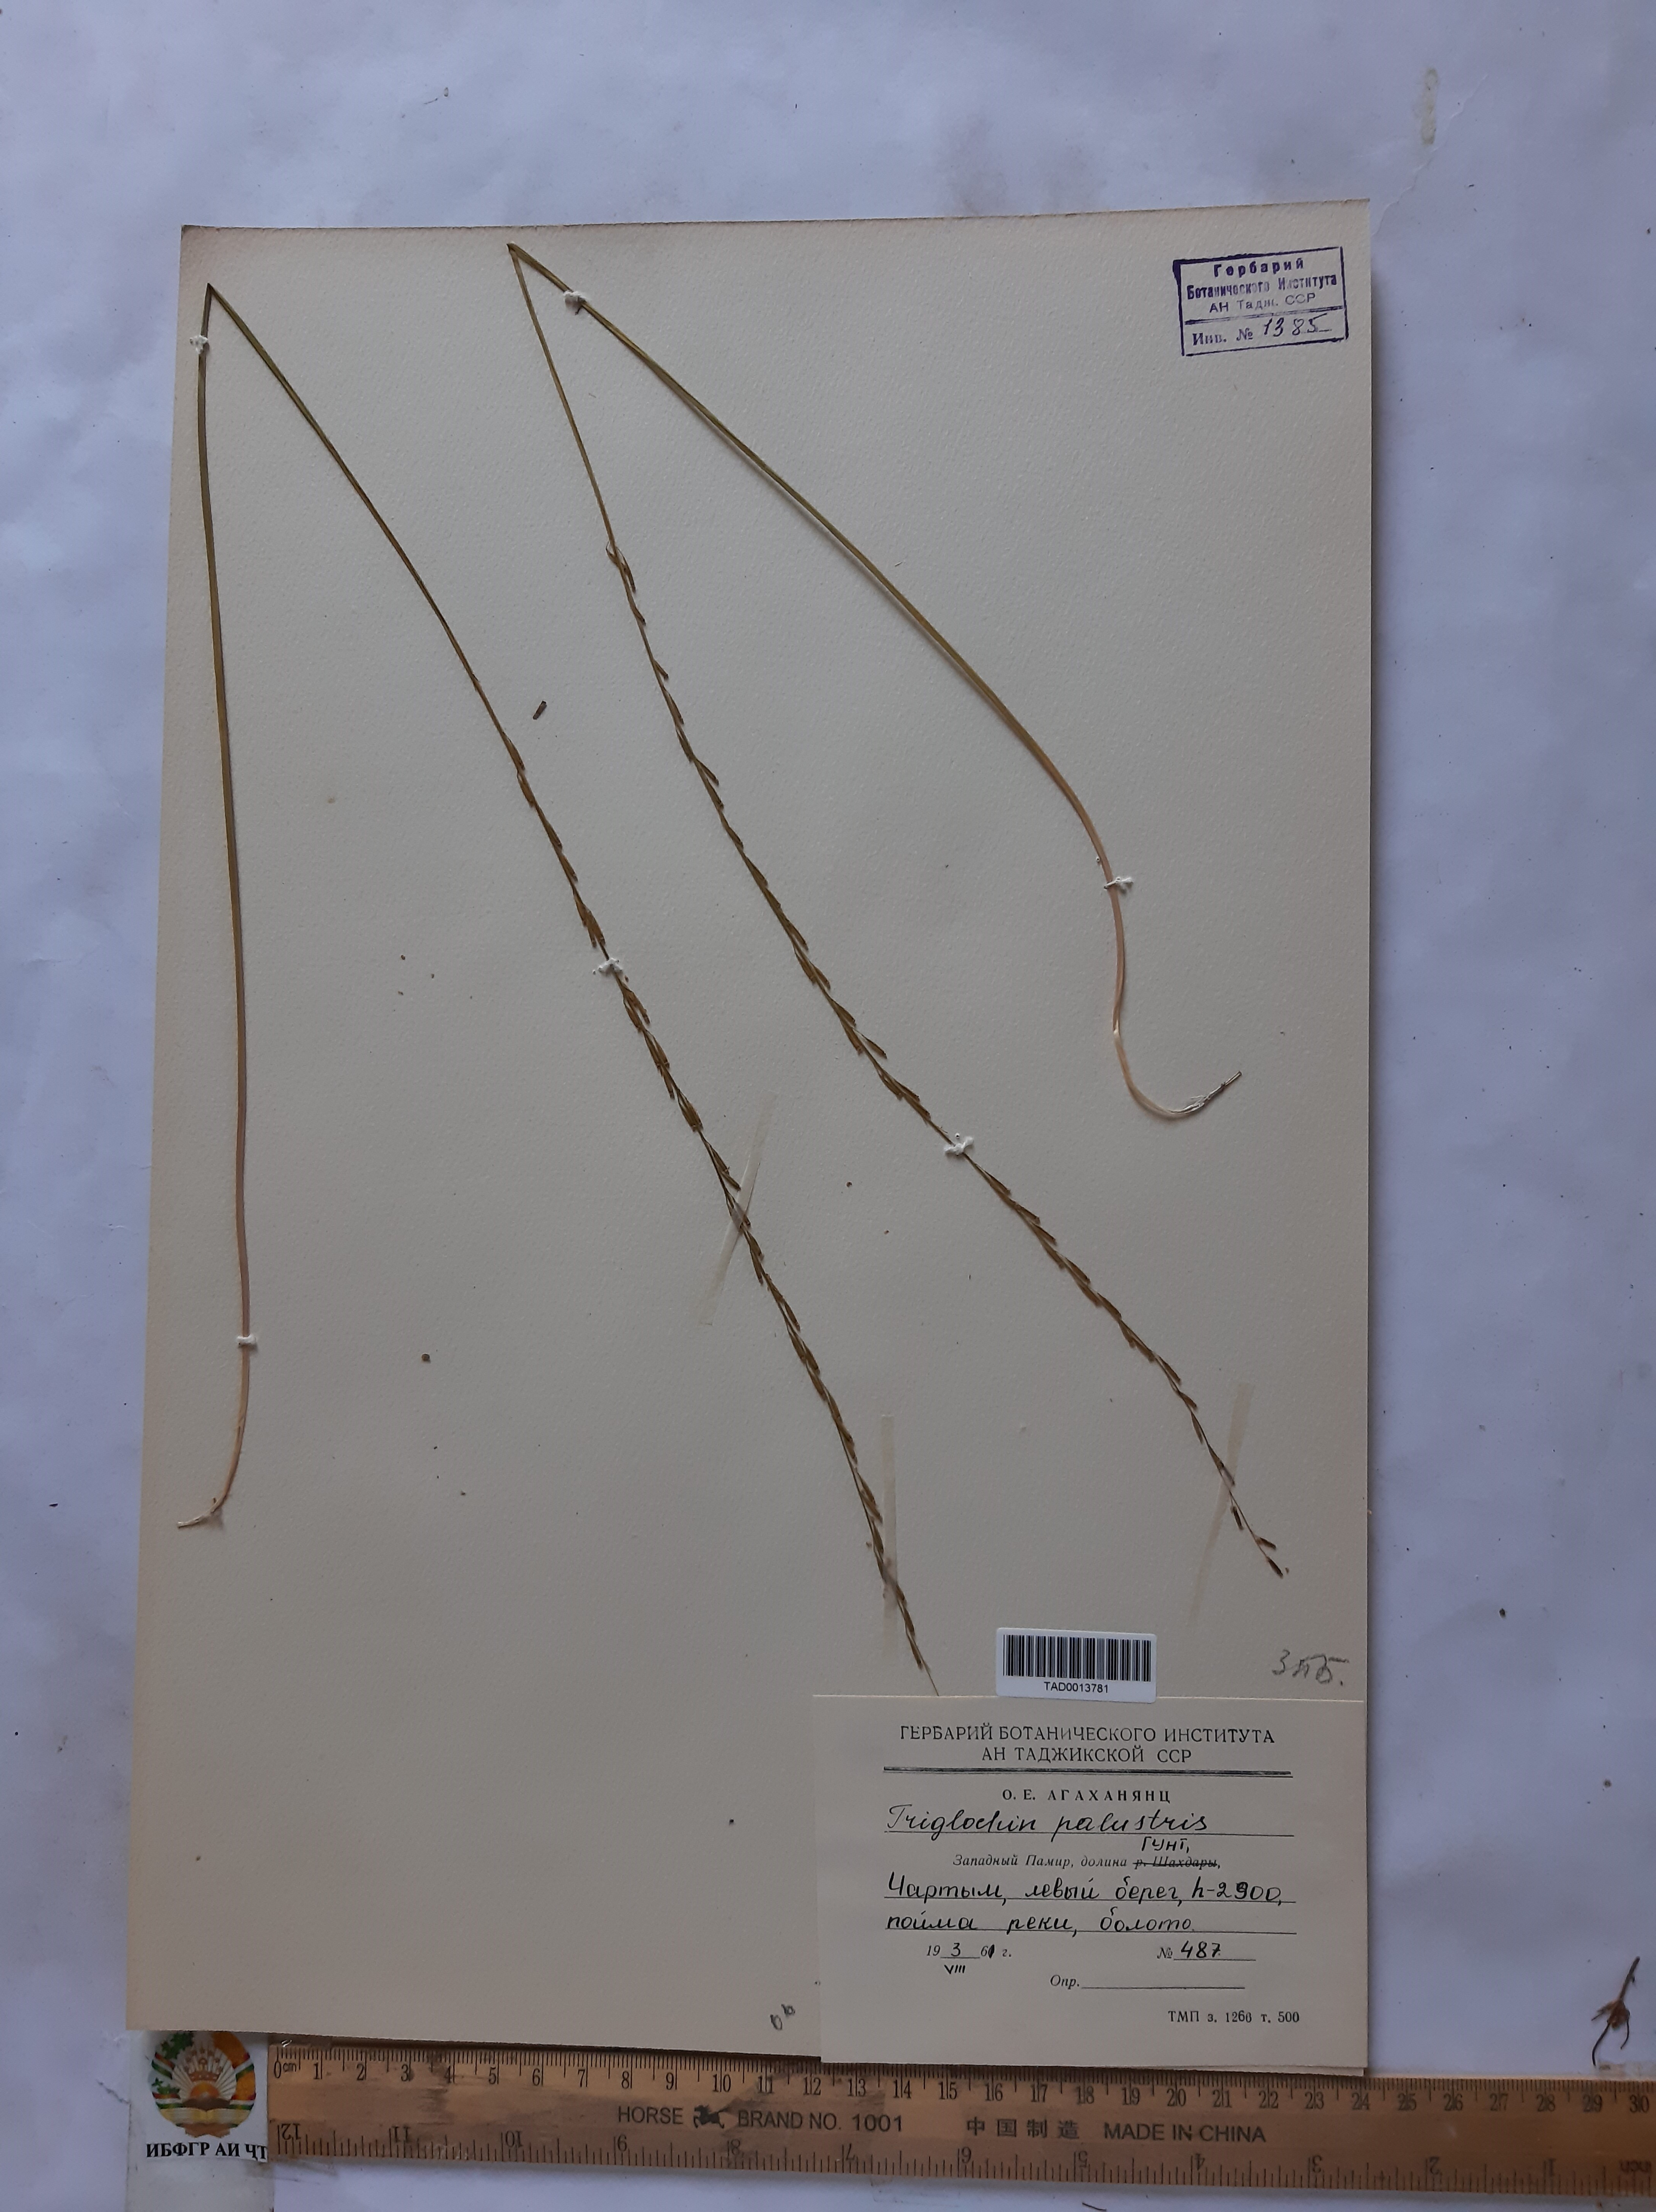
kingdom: Plantae
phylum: Tracheophyta
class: Liliopsida
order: Alismatales
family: Juncaginaceae
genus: Triglochin
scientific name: Triglochin palustris
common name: Marsh arrowgrass
